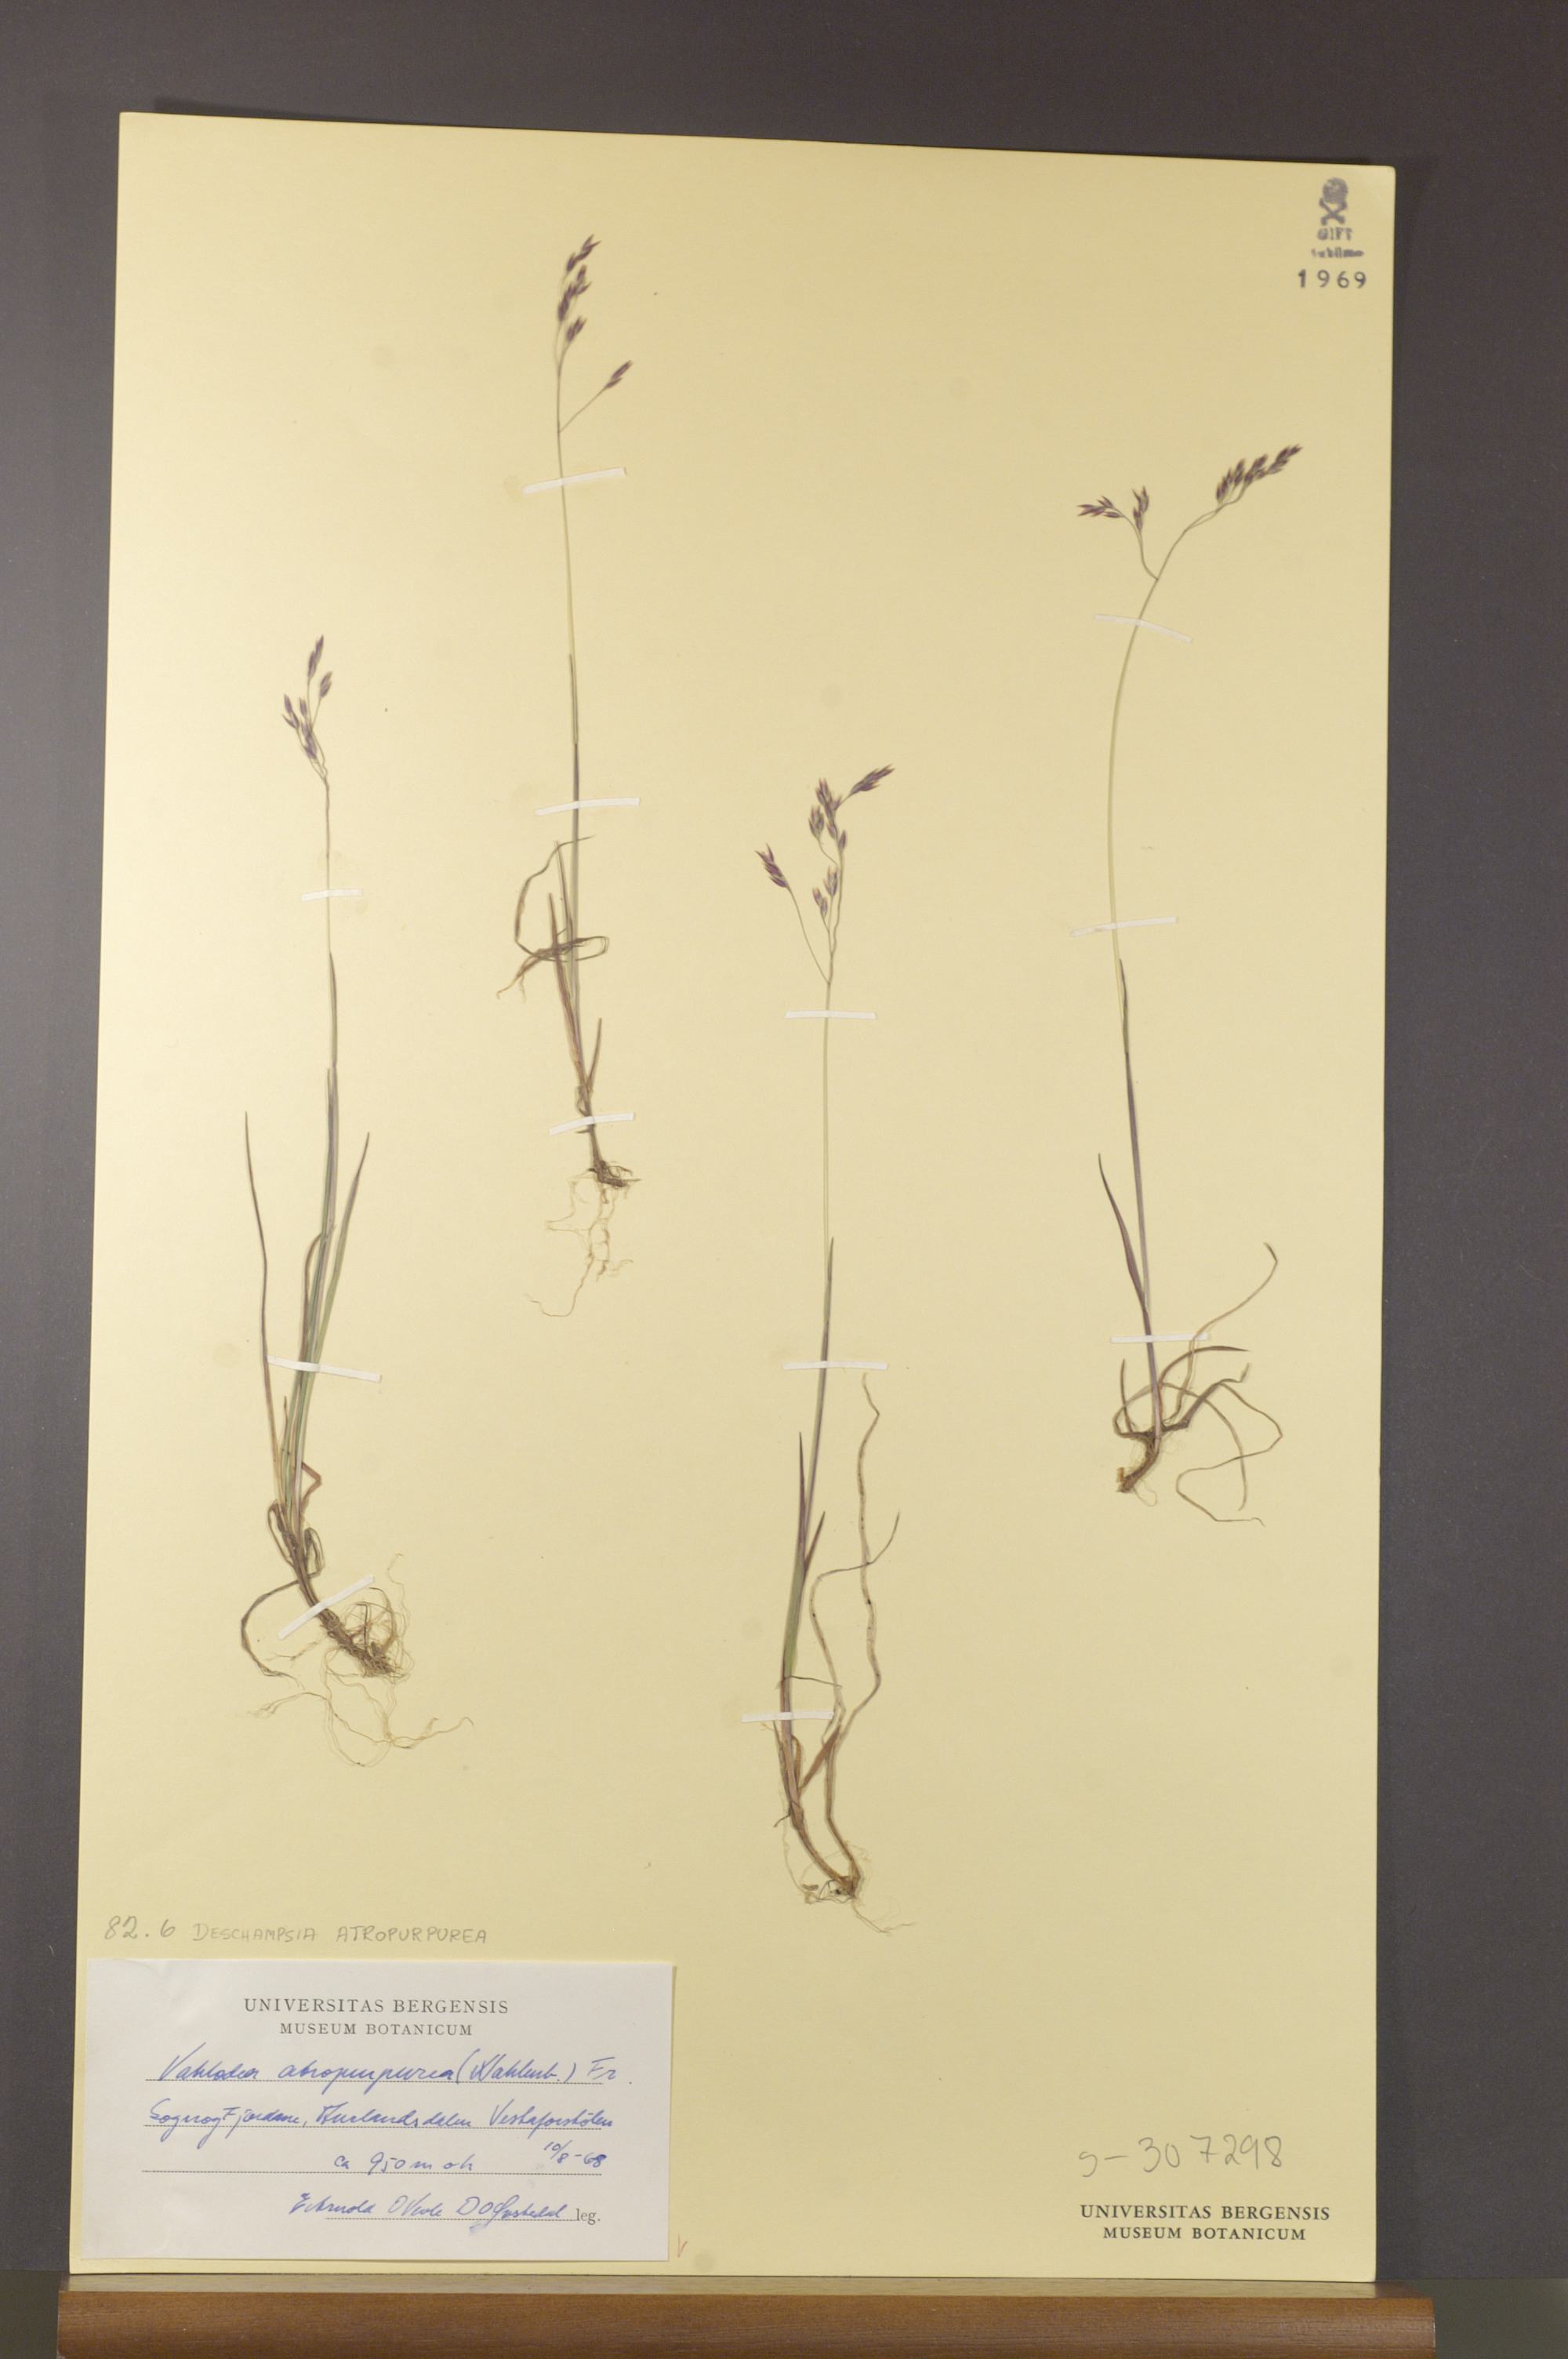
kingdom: Plantae
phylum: Tracheophyta
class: Liliopsida
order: Poales
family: Poaceae
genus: Vahlodea
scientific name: Vahlodea atropurpurea
